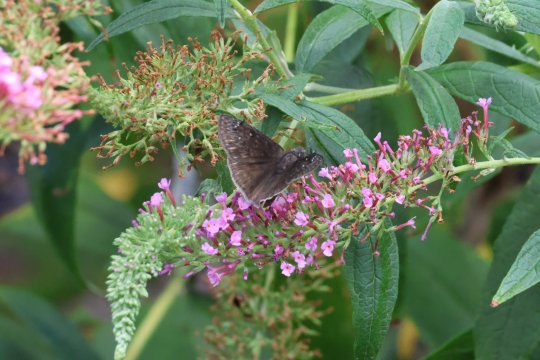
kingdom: Animalia
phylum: Arthropoda
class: Insecta
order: Lepidoptera
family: Hesperiidae
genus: Erynnis
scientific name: Erynnis tristis
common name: Mournful Duskywing
